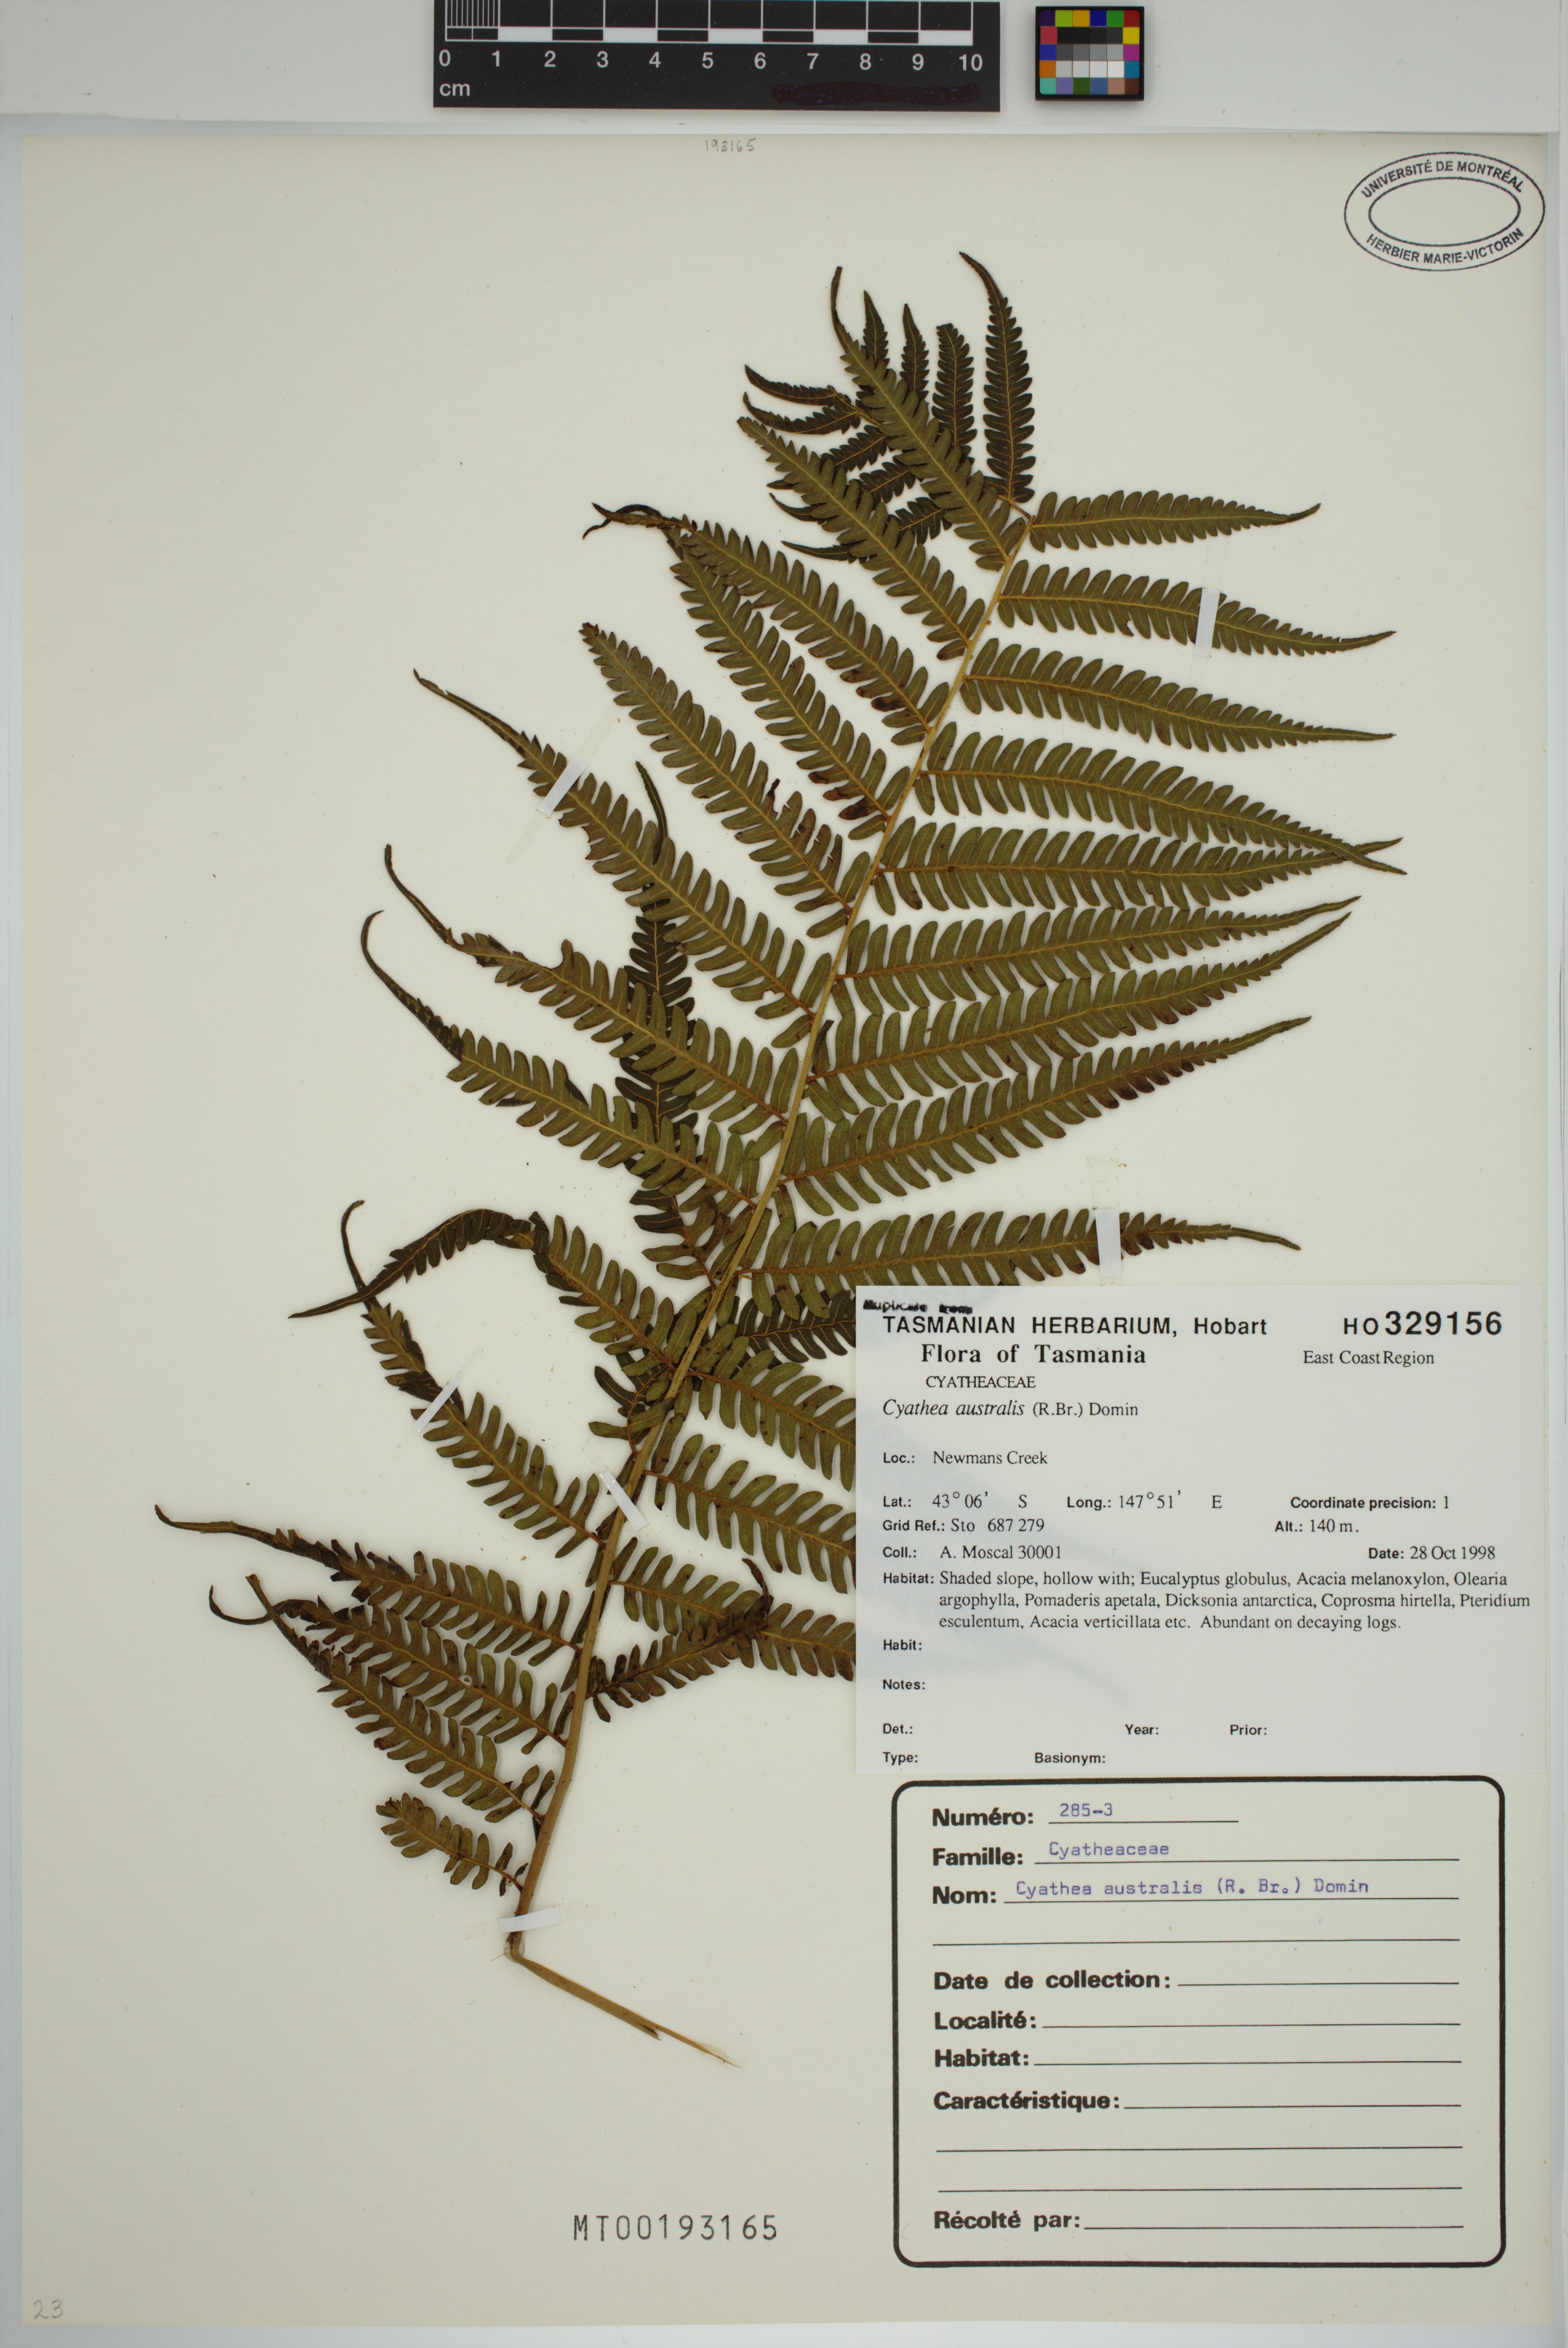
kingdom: Plantae
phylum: Tracheophyta
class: Polypodiopsida
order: Cyatheales
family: Cyatheaceae
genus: Alsophila
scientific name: Alsophila australis
